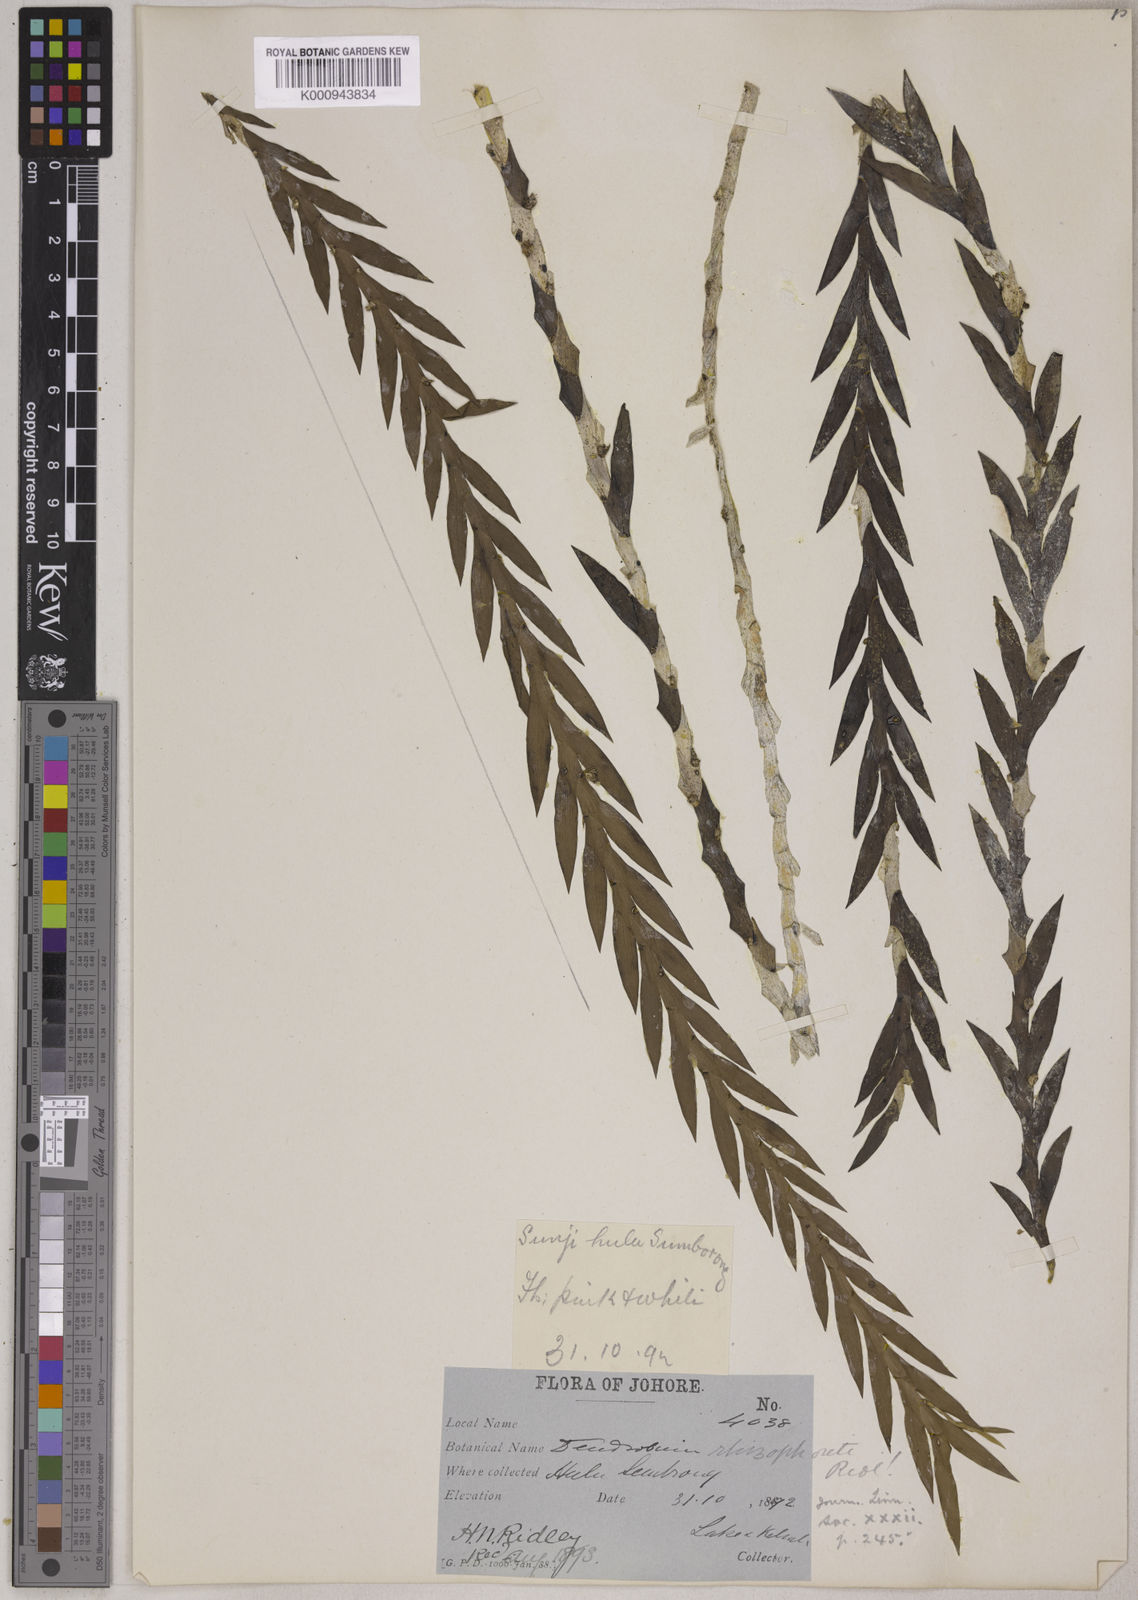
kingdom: Plantae
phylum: Tracheophyta
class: Liliopsida
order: Asparagales
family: Orchidaceae
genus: Dendrobium
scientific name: Dendrobium lobatum
